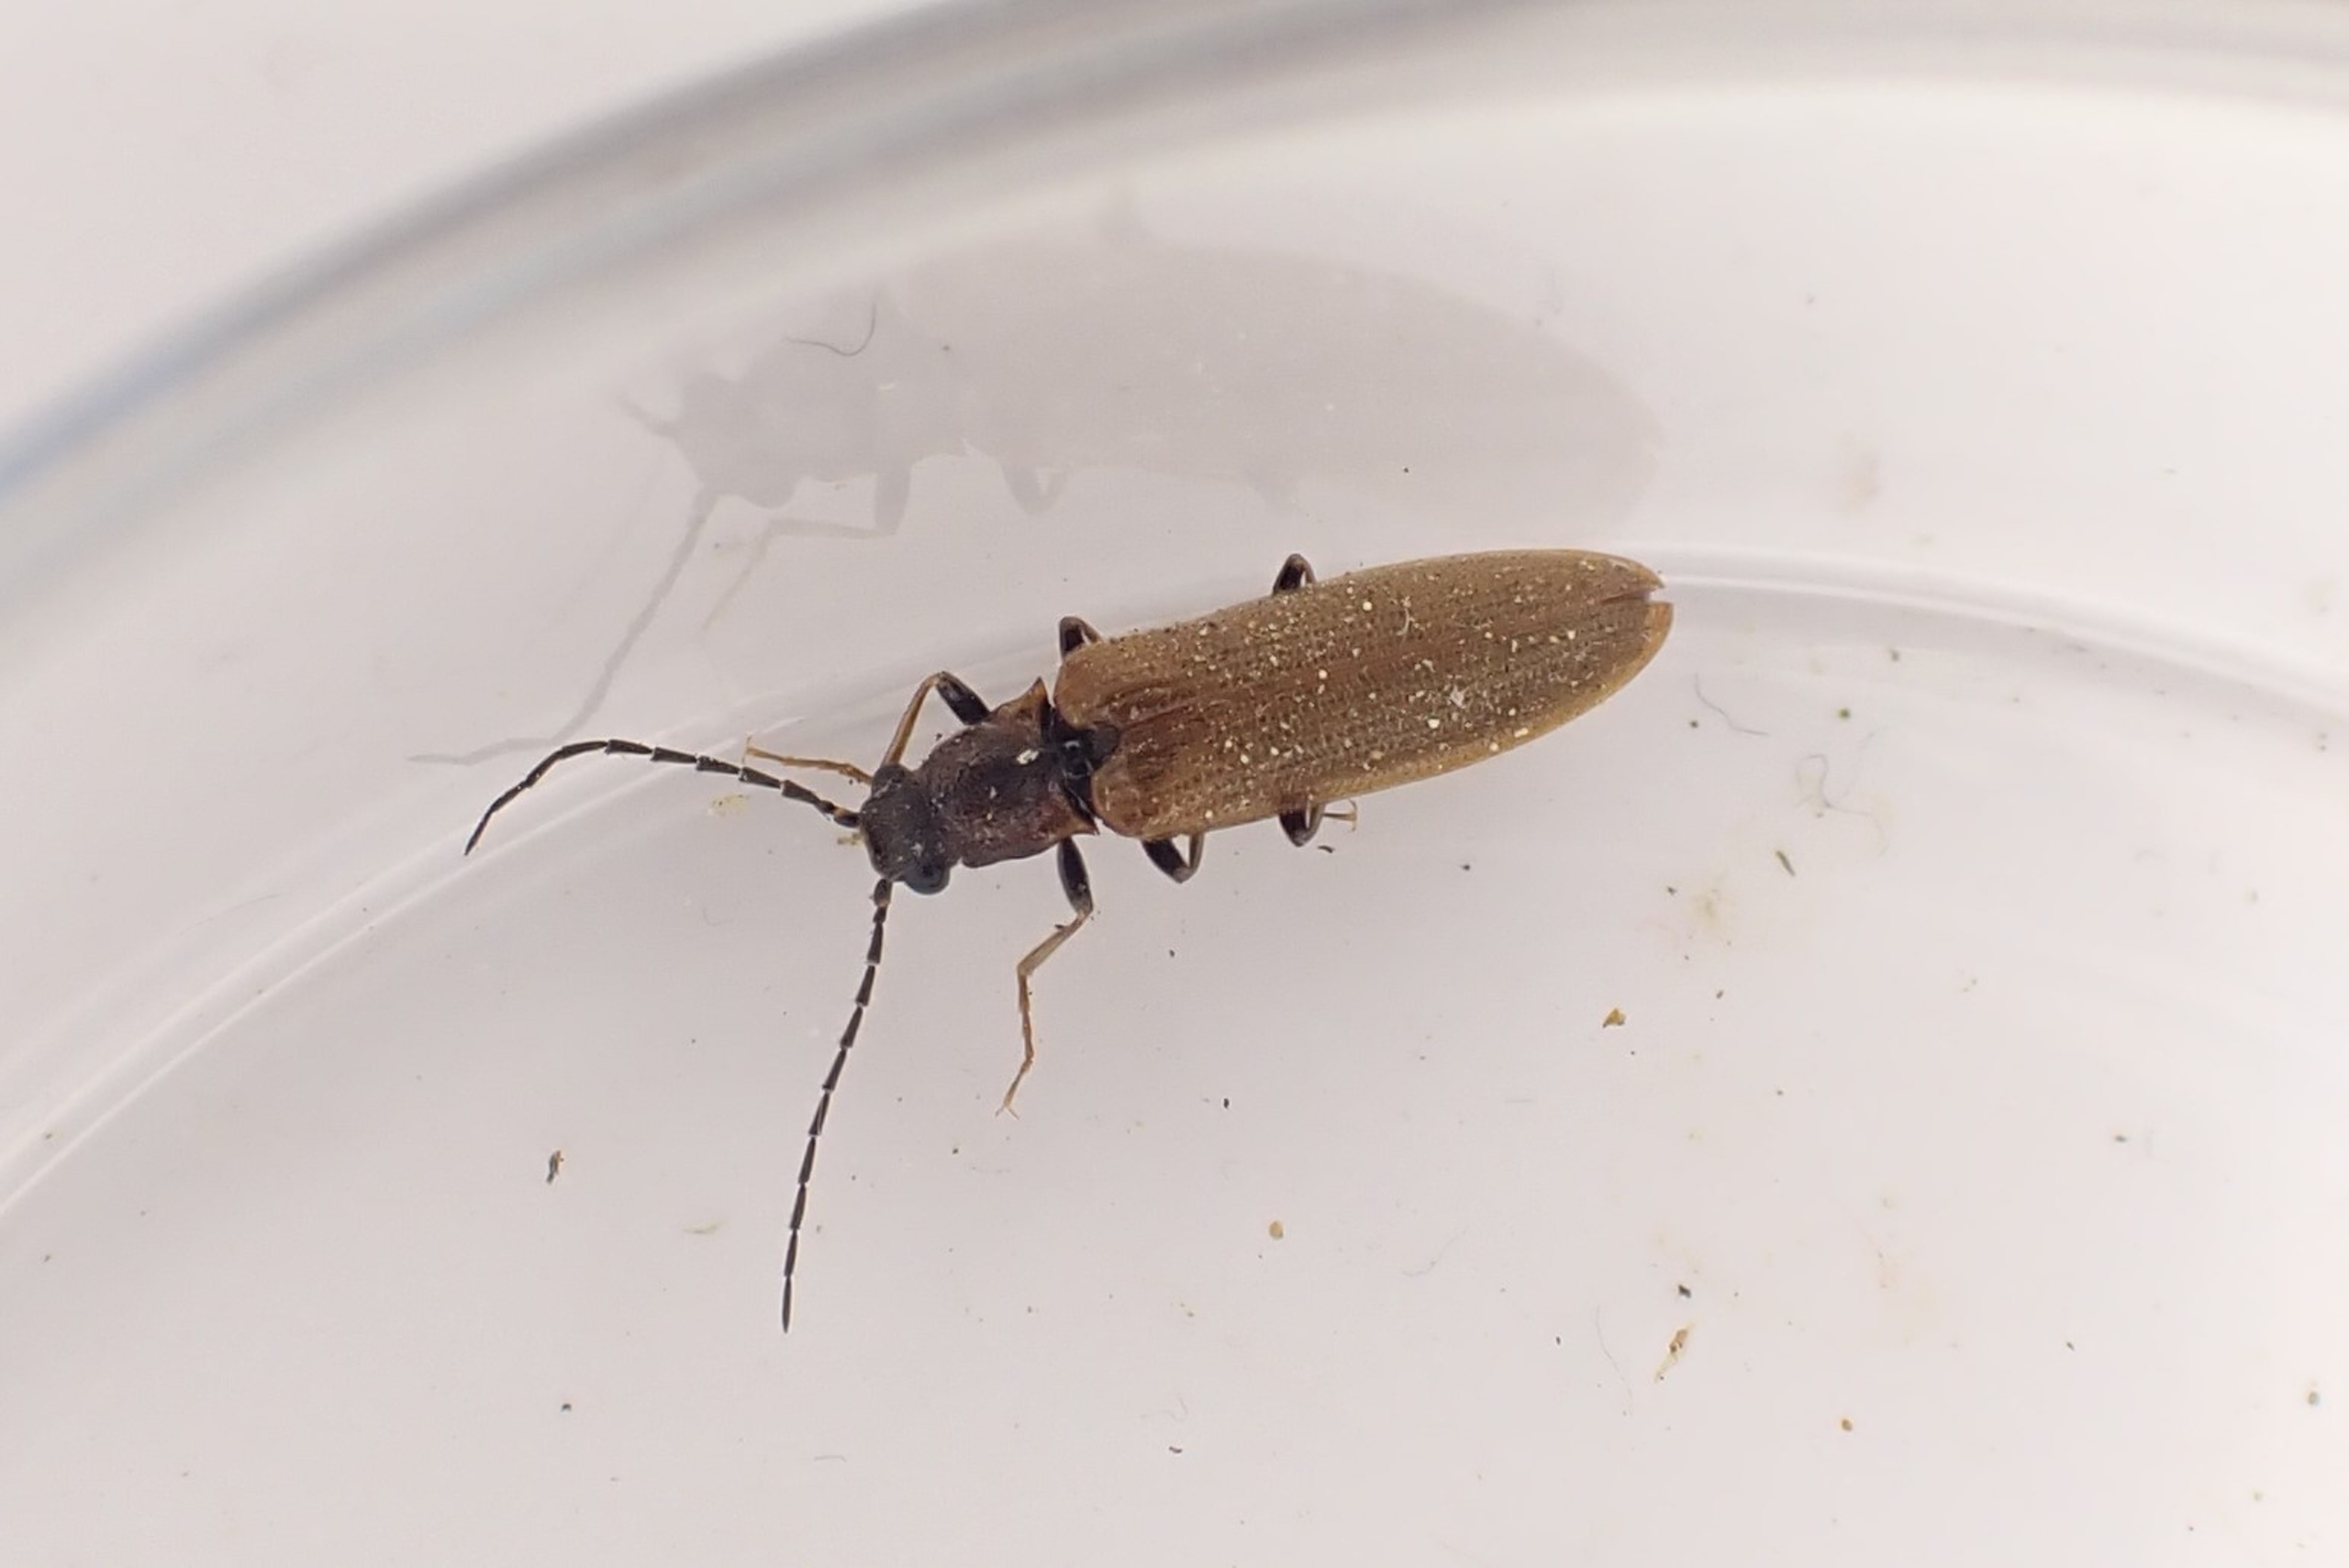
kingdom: Animalia
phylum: Arthropoda
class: Insecta
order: Coleoptera
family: Elateridae
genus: Denticollis
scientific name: Denticollis linearis
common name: Almindelig sirsmælder
